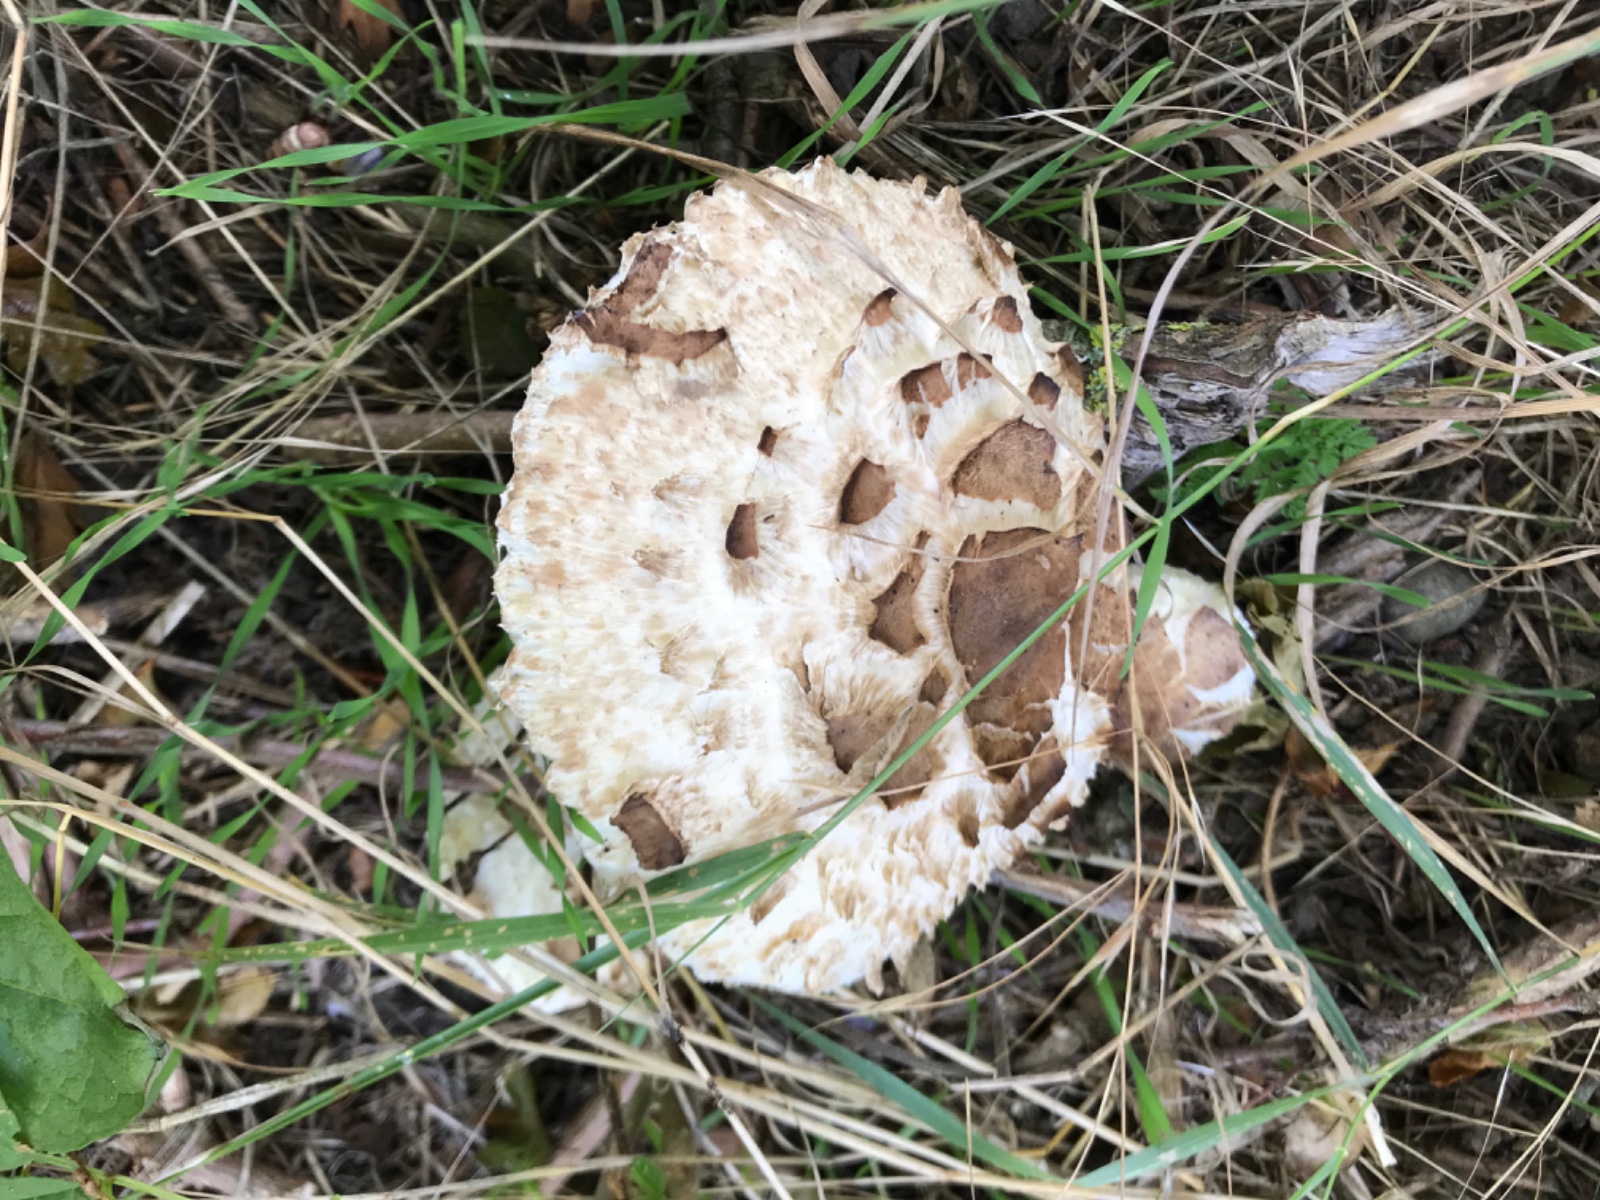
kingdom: Fungi
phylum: Basidiomycota
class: Agaricomycetes
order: Agaricales
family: Agaricaceae
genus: Chlorophyllum
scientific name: Chlorophyllum rhacodes
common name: ægte rabarberhat
